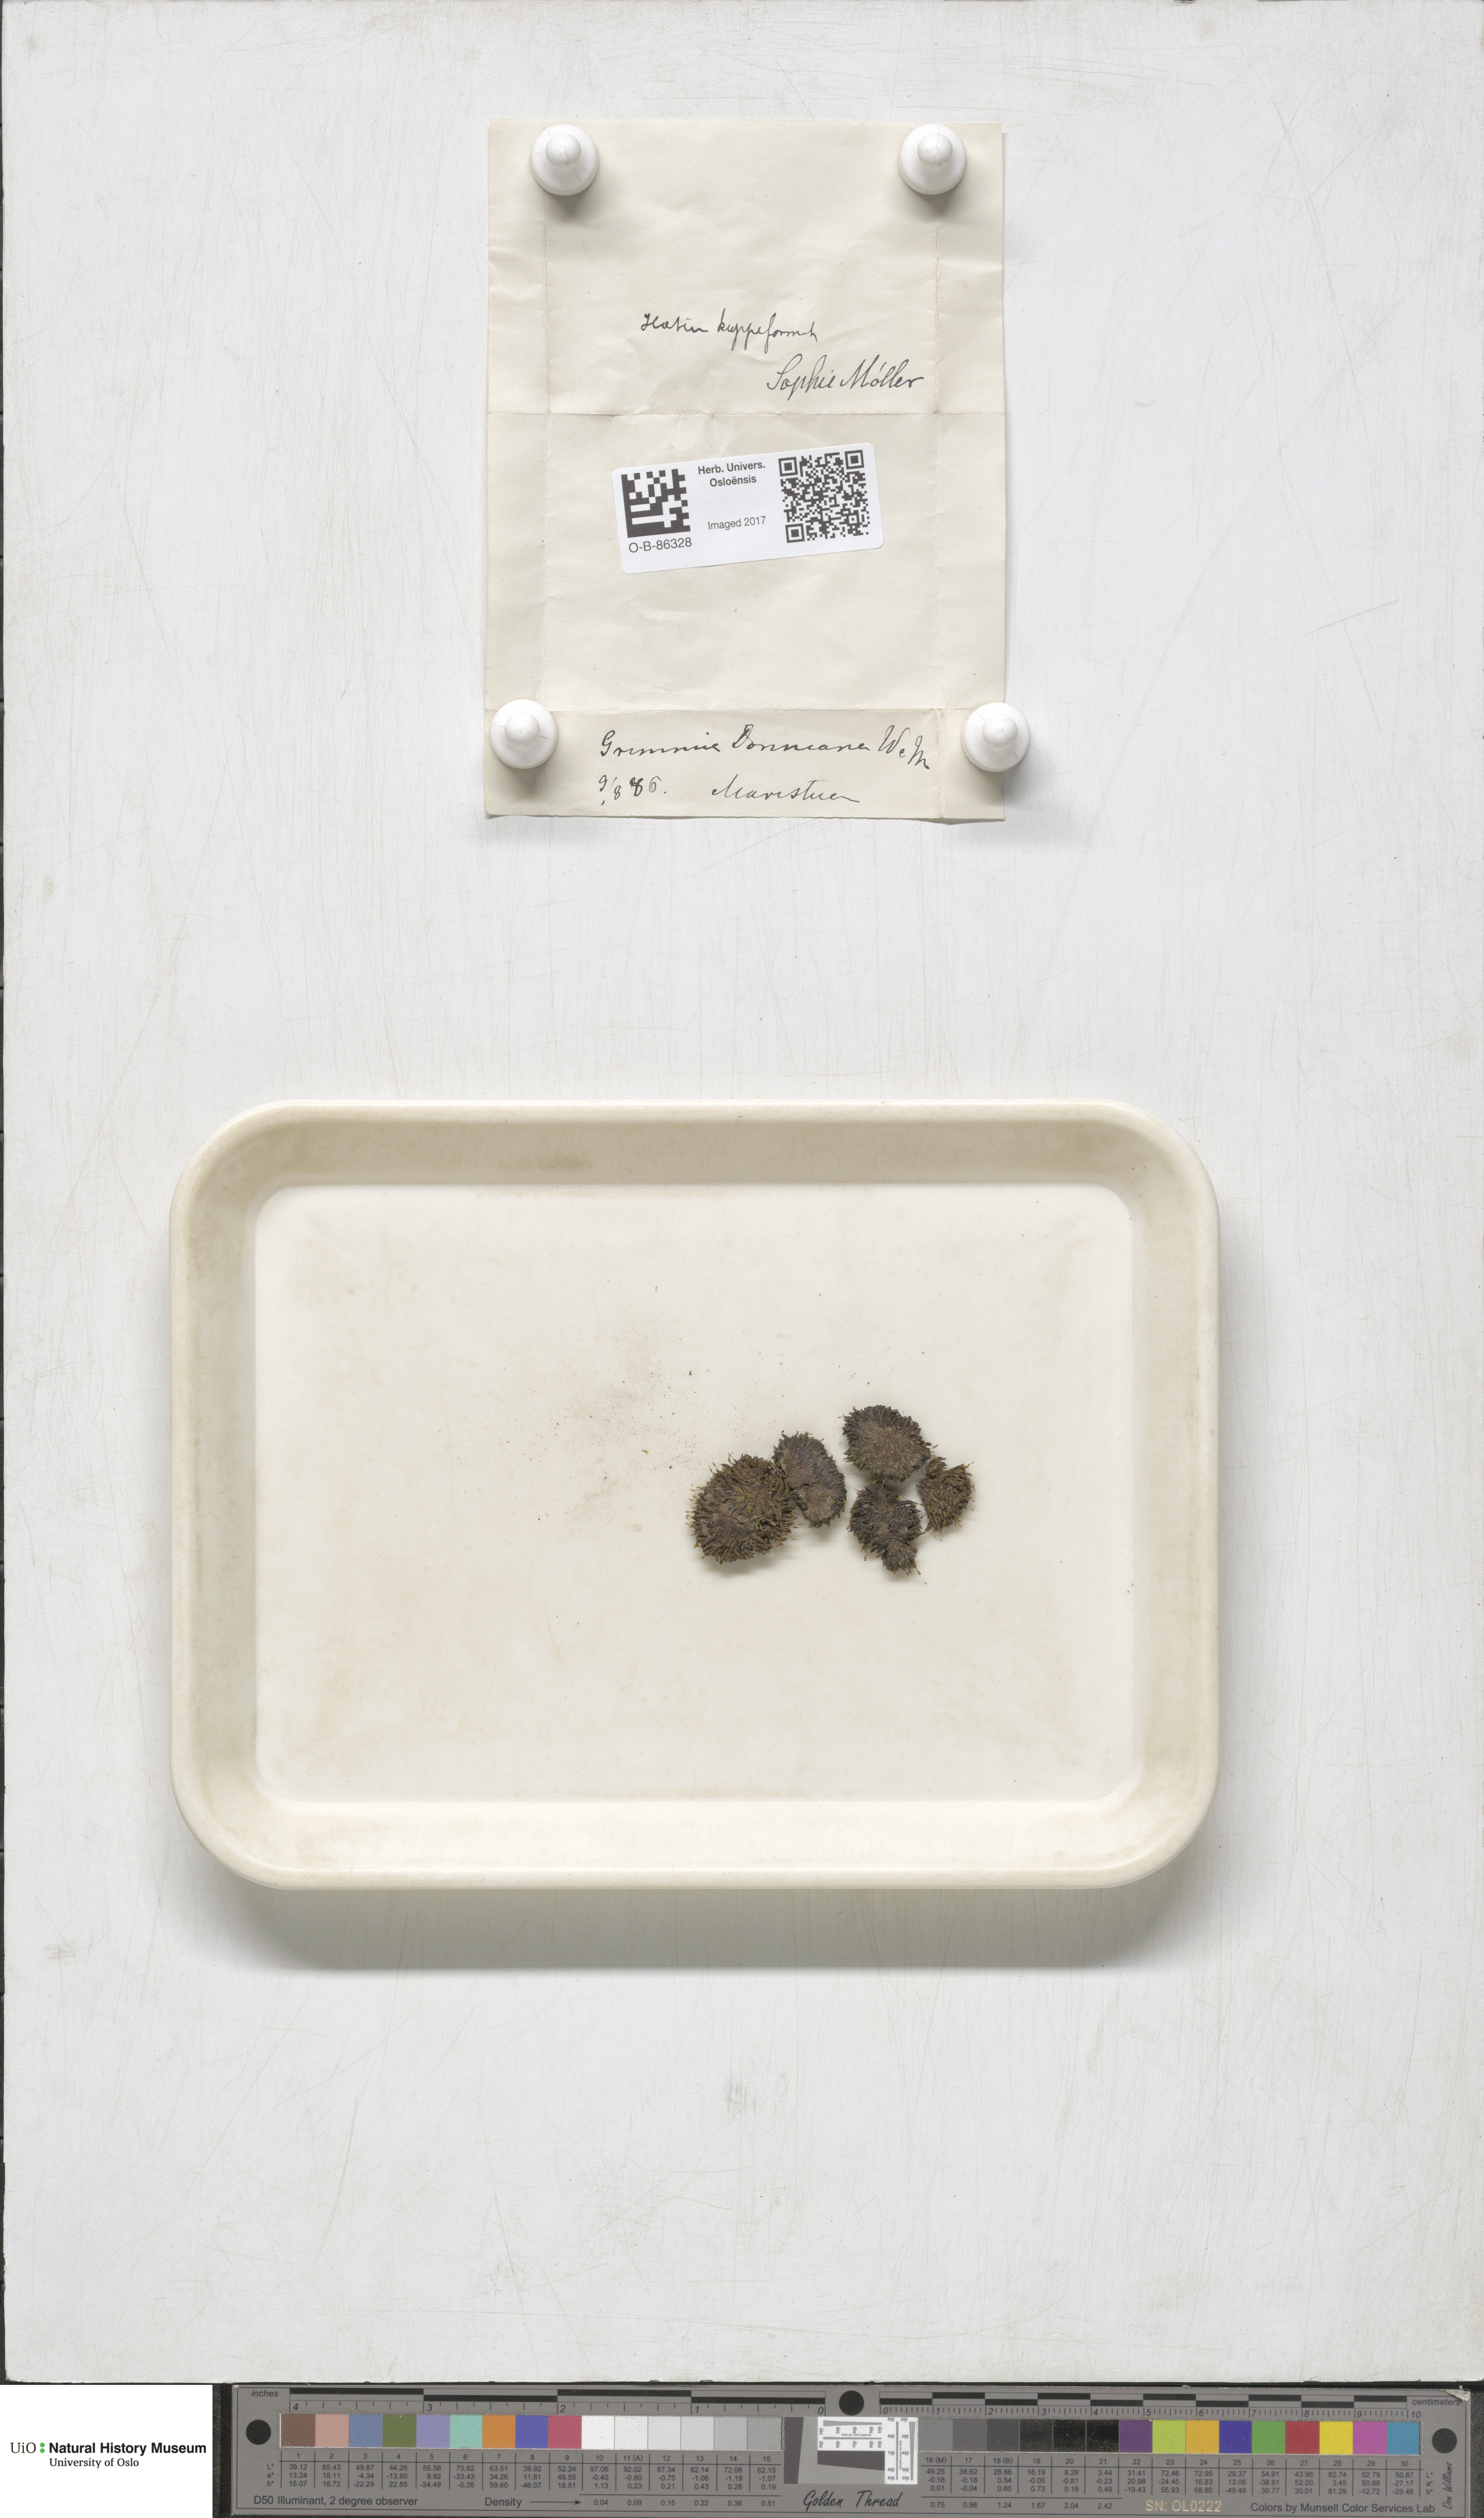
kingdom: Plantae
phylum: Bryophyta
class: Bryopsida
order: Grimmiales
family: Grimmiaceae
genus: Grimmia
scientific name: Grimmia donniana
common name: Donn's grimmia
